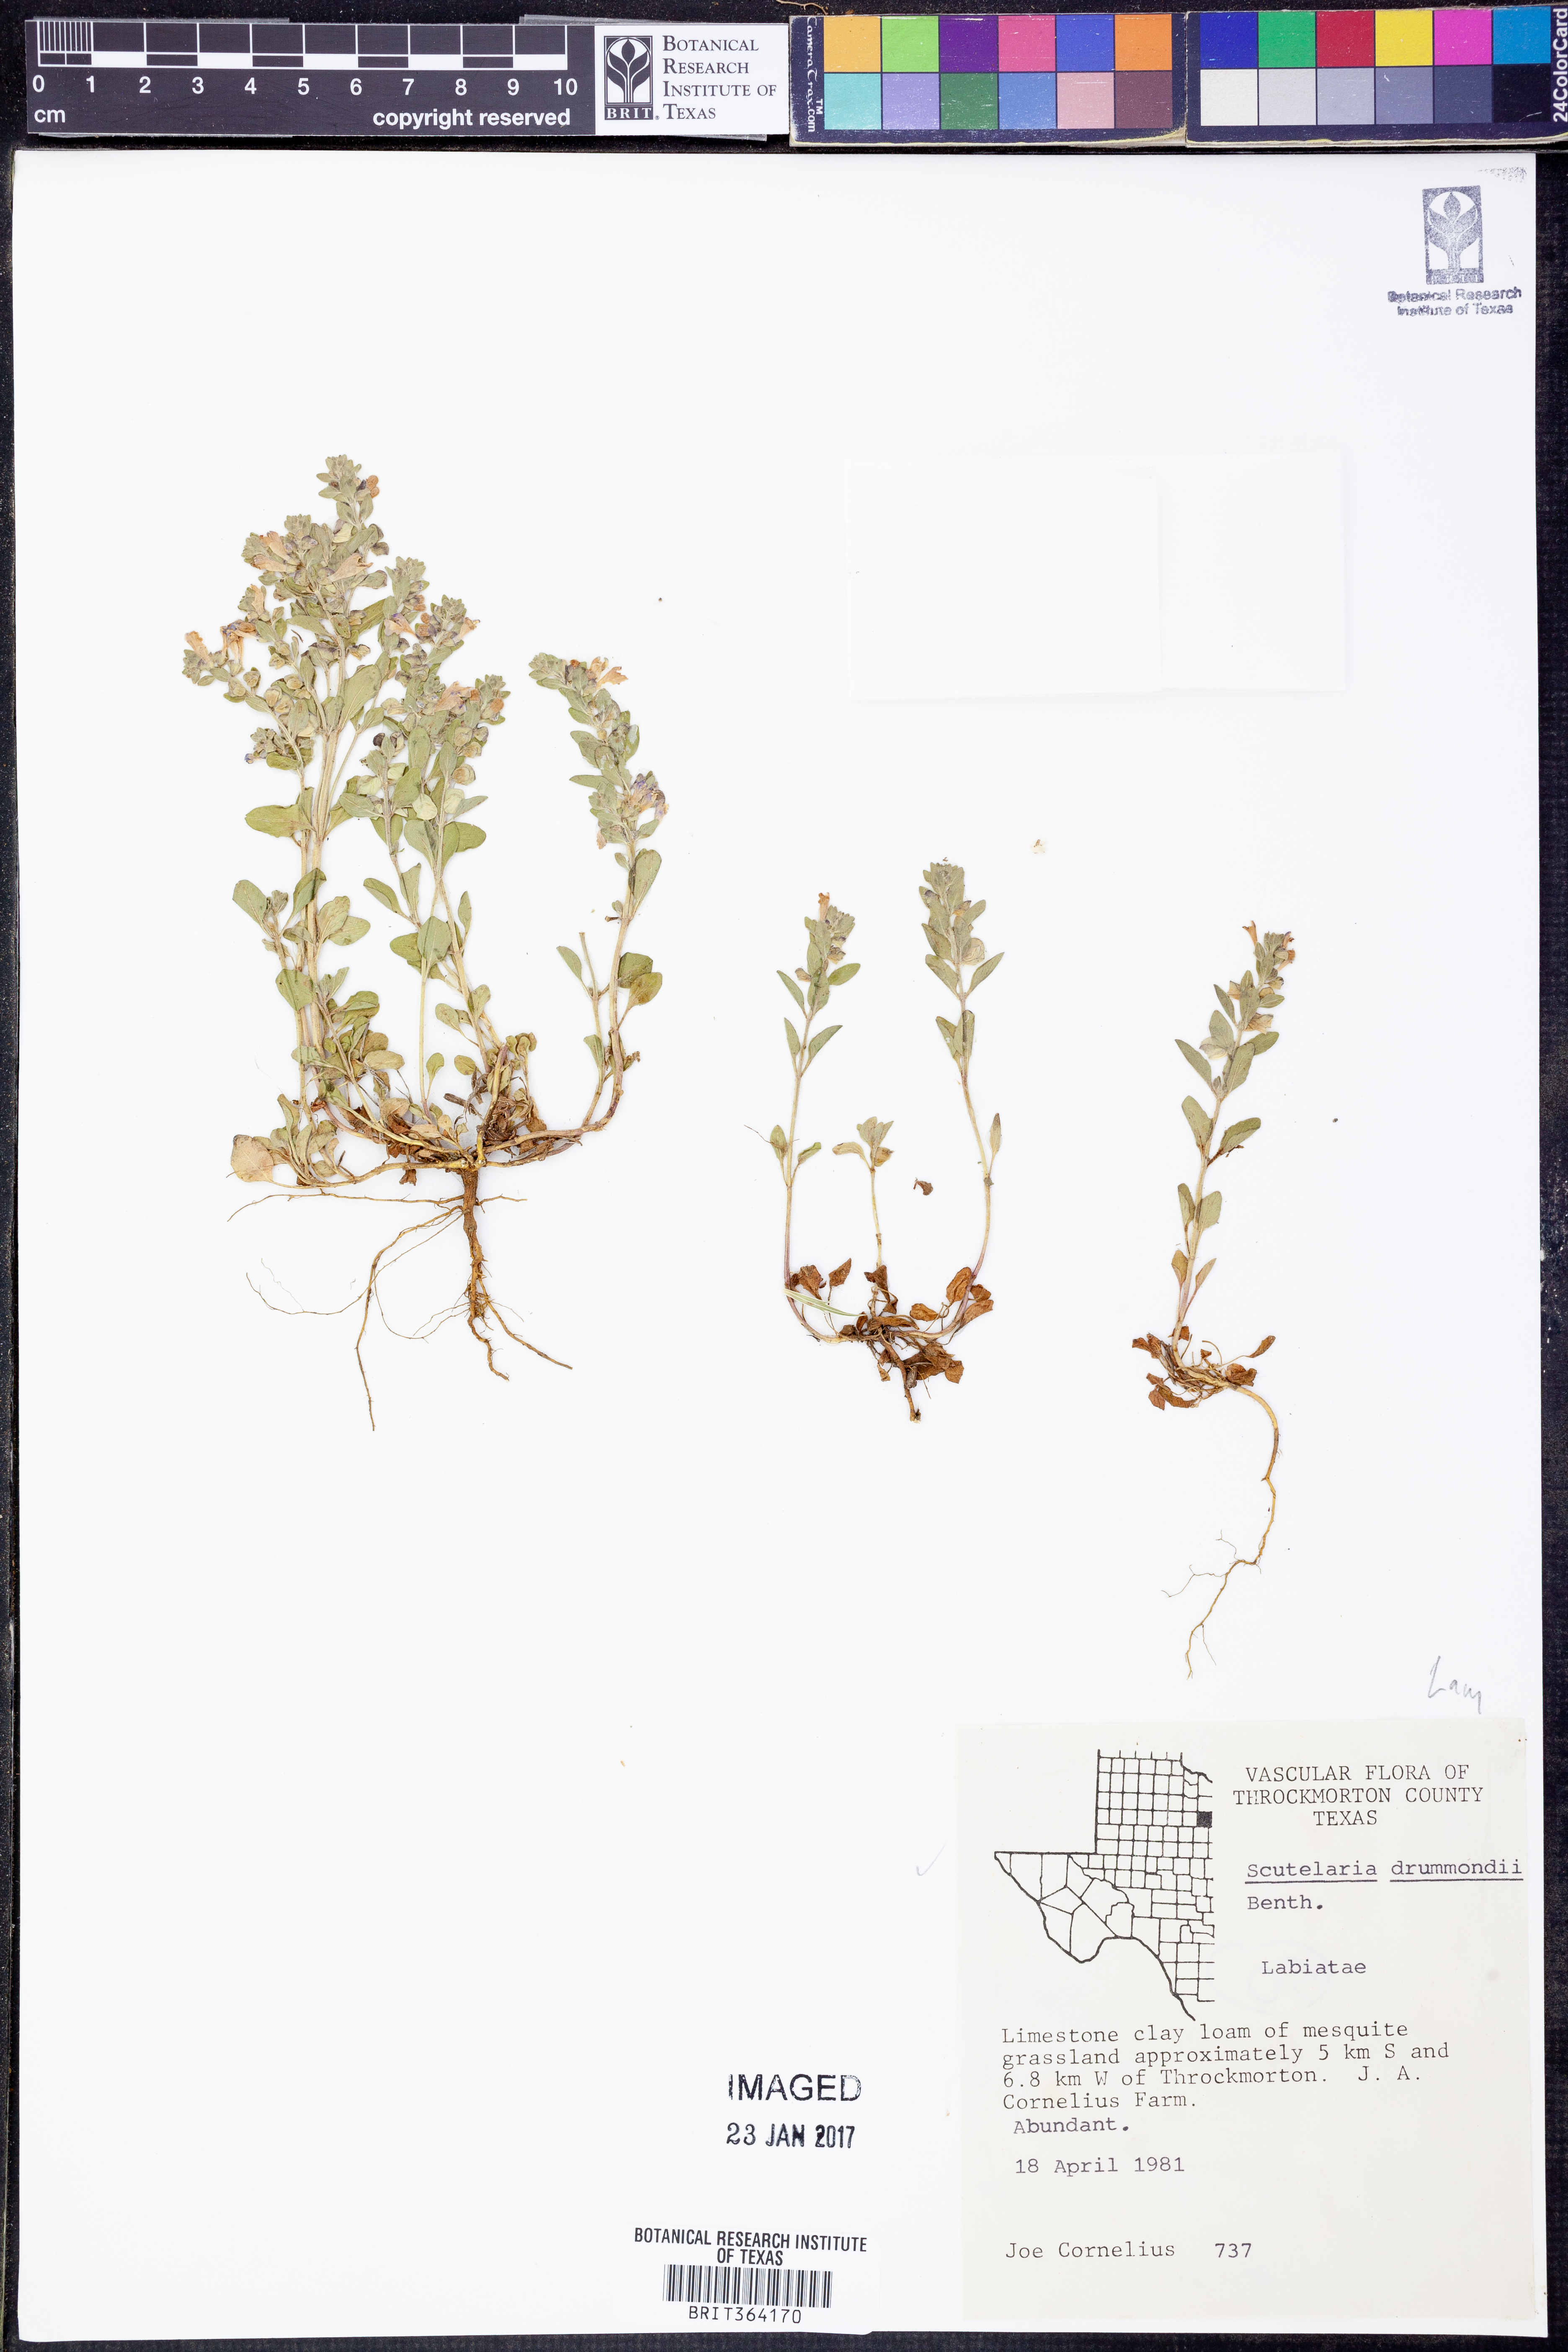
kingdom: Plantae
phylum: Tracheophyta
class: Magnoliopsida
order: Lamiales
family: Lamiaceae
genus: Scutellaria
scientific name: Scutellaria drummondii
